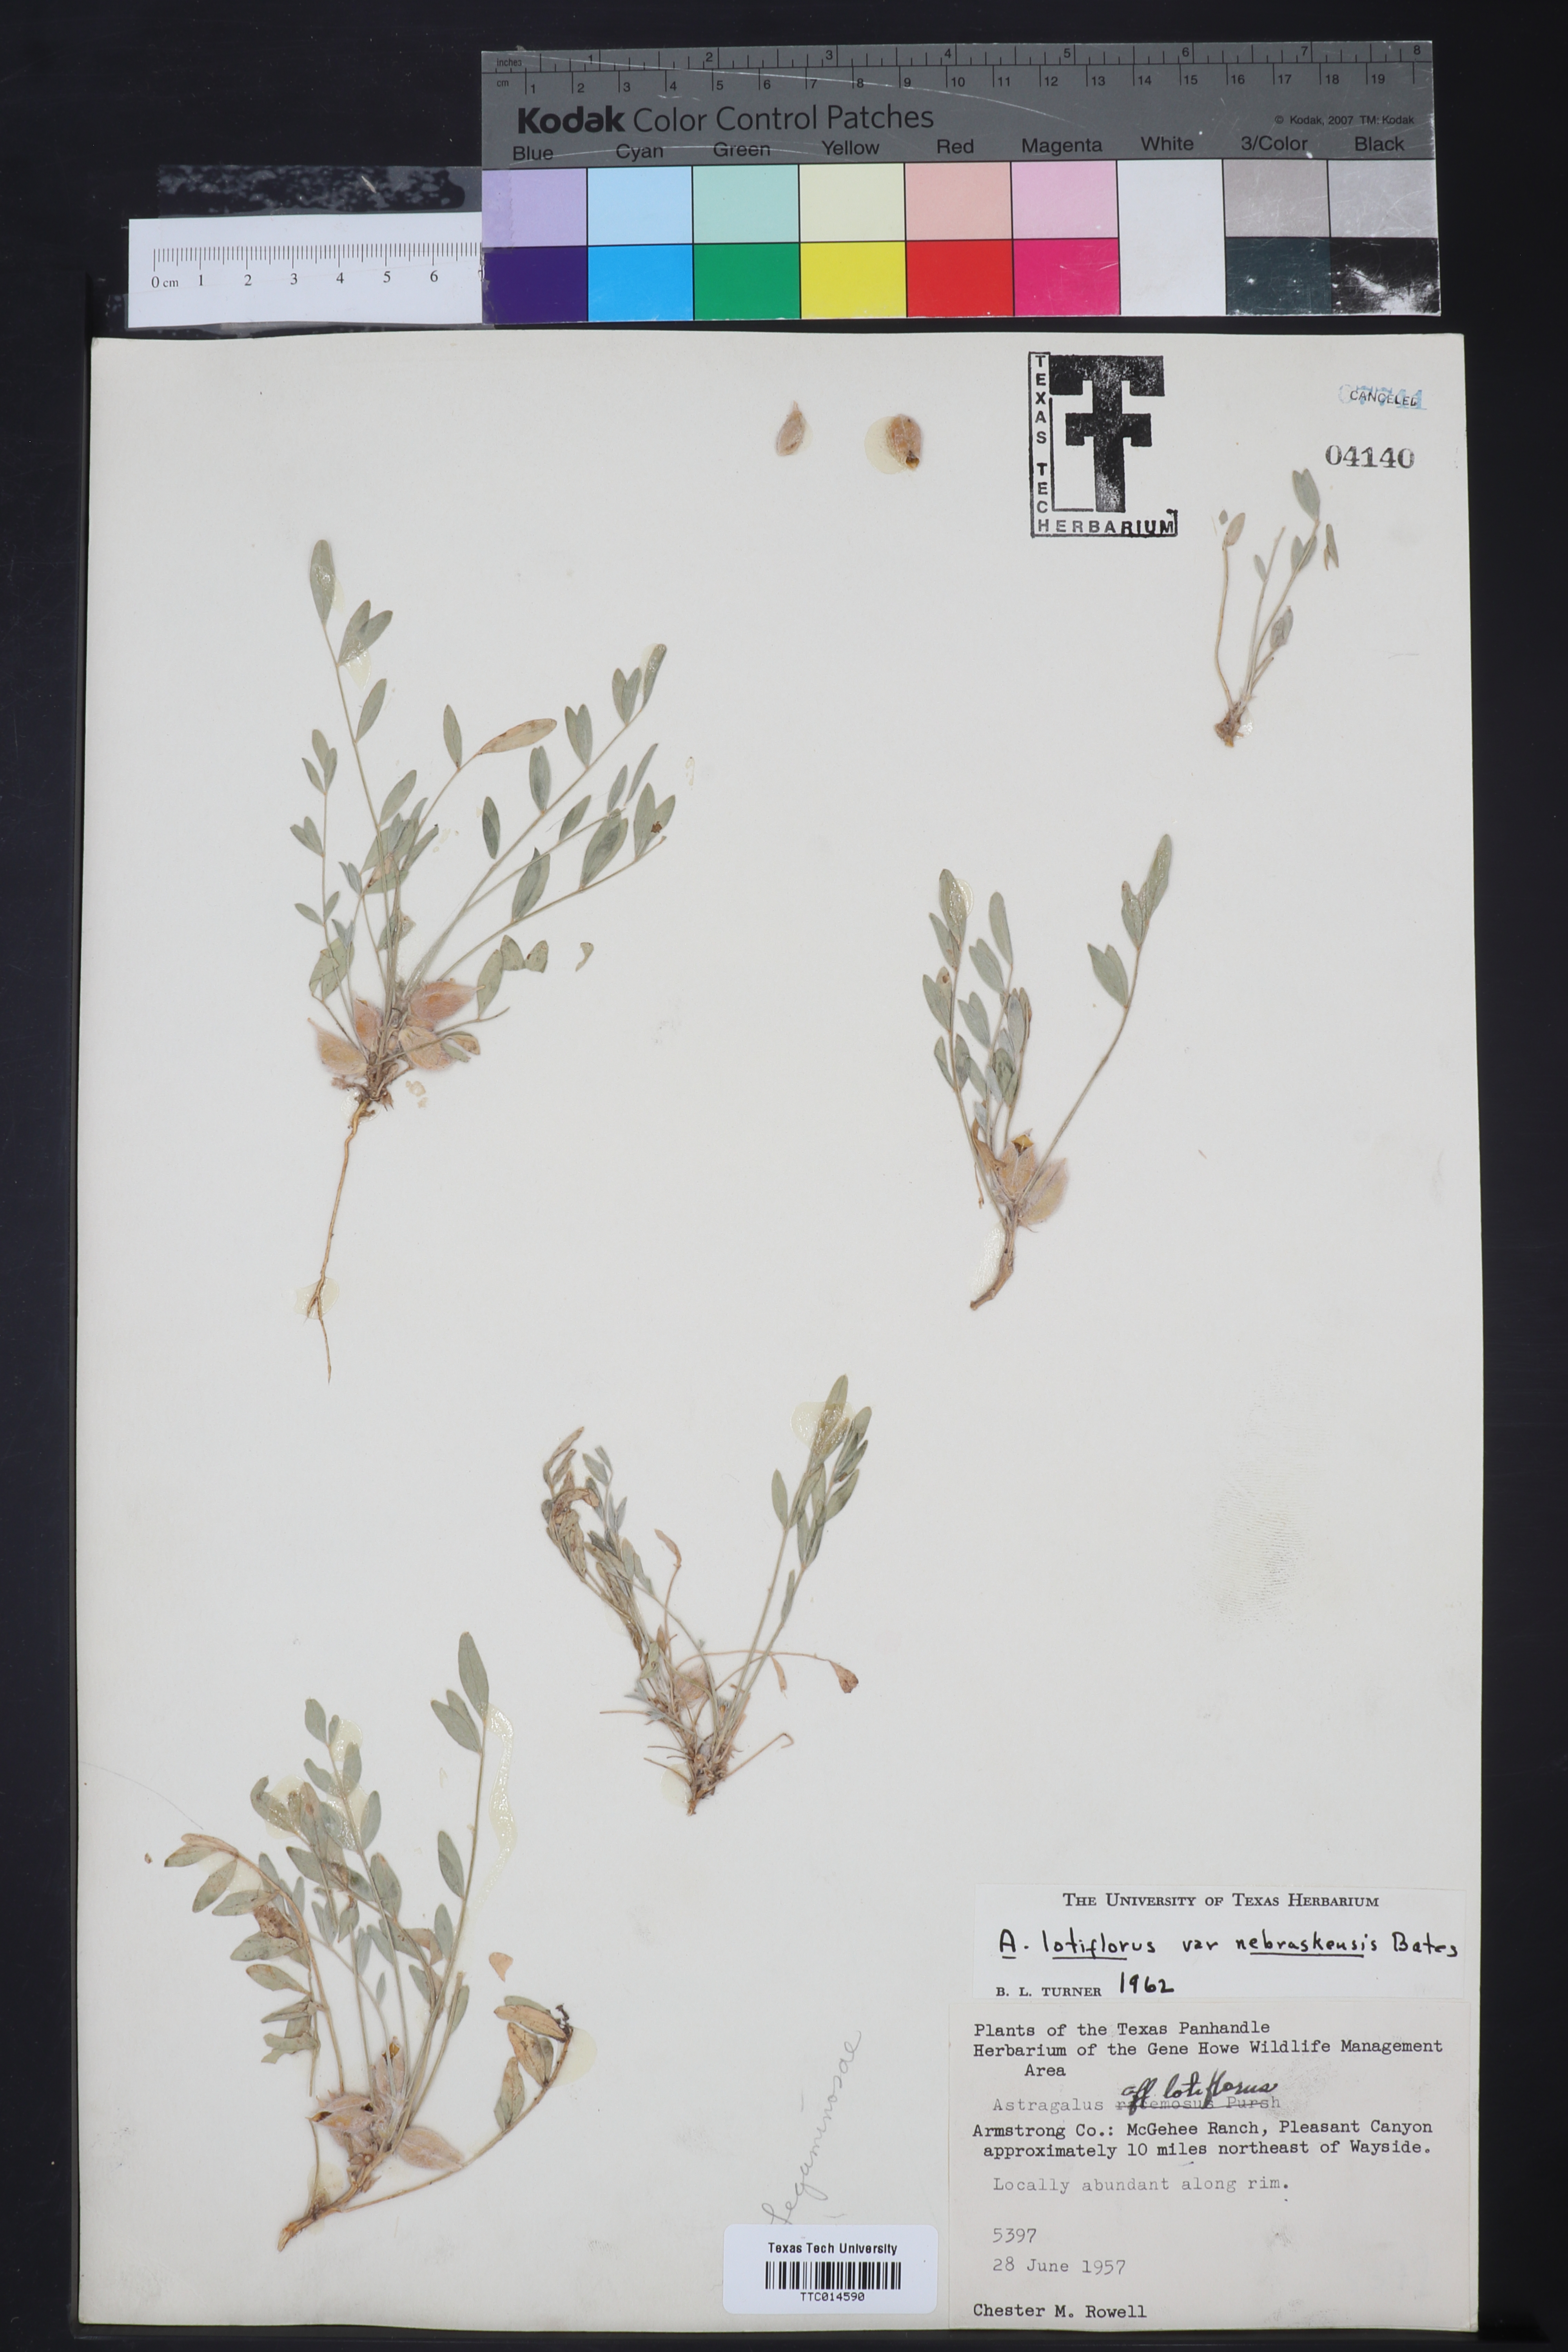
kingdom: Plantae
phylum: Tracheophyta
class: Magnoliopsida
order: Fabales
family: Fabaceae
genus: Astragalus
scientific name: Astragalus lotiflorus
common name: Lotus milk-vetch
